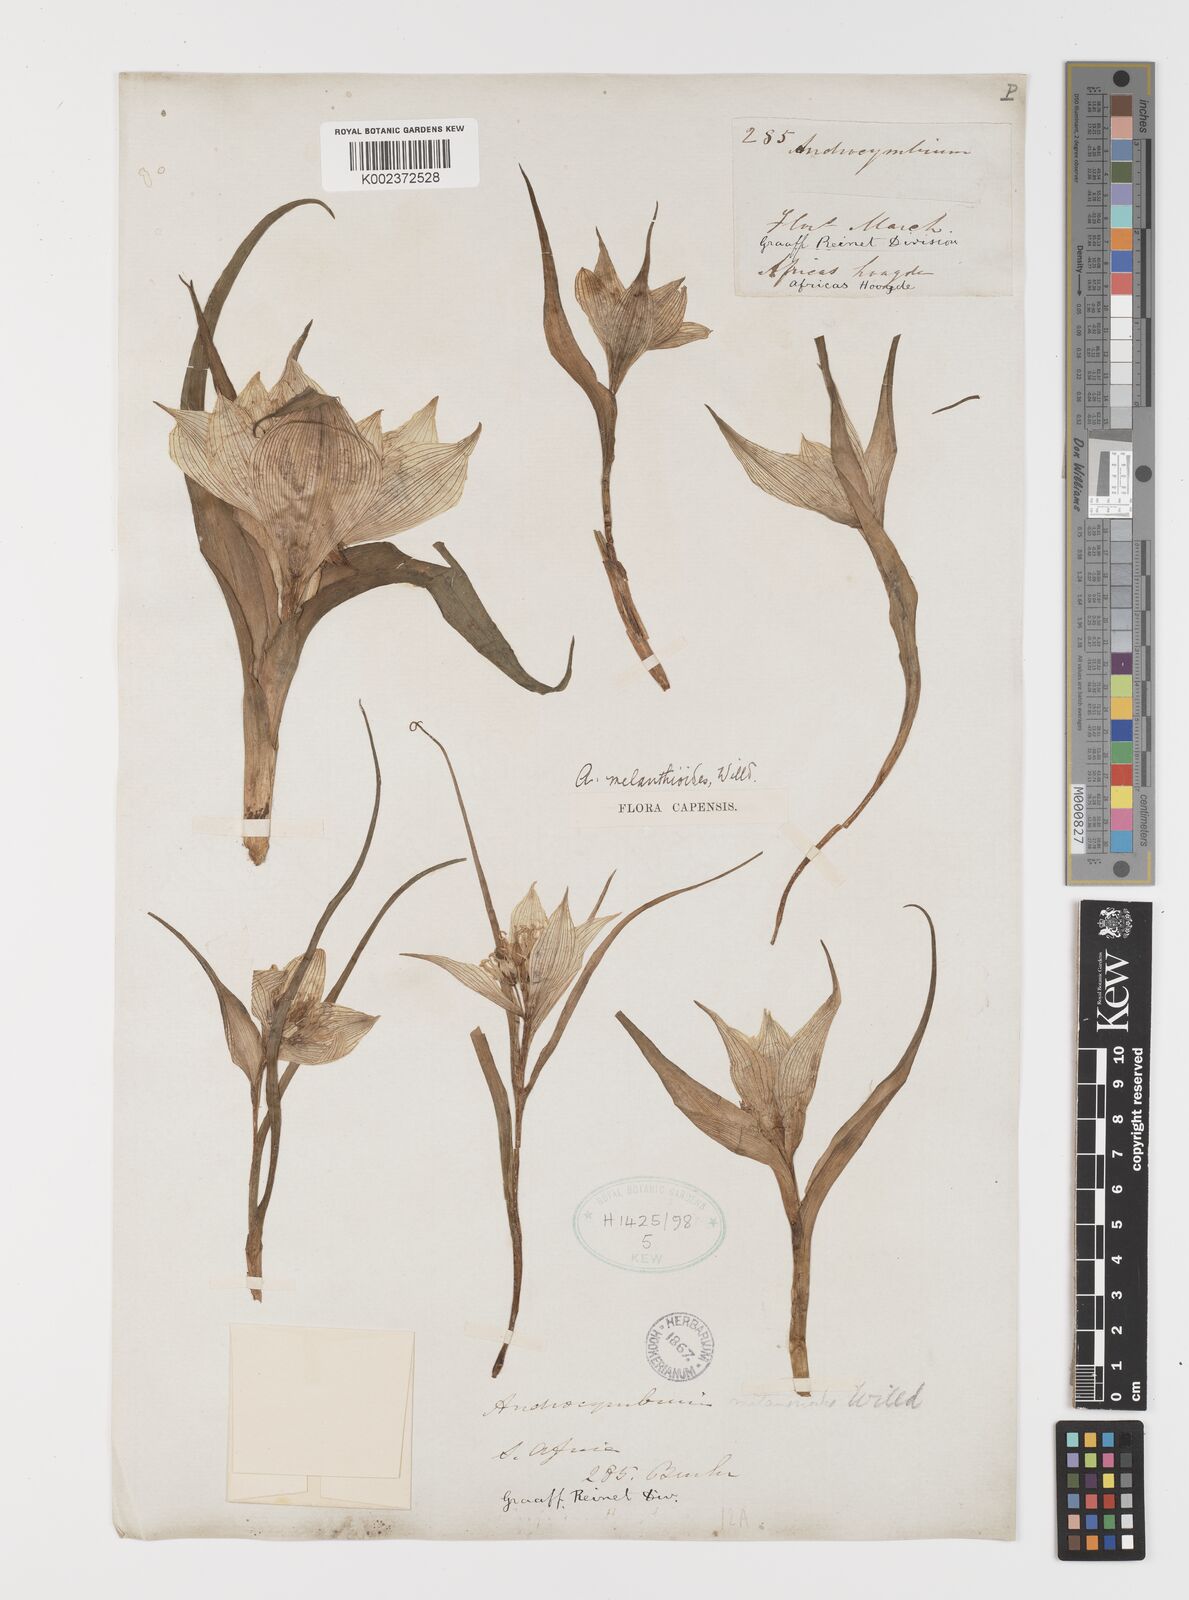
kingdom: Plantae
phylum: Tracheophyta
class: Liliopsida
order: Liliales
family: Colchicaceae
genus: Colchicum
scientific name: Colchicum melanthioides
